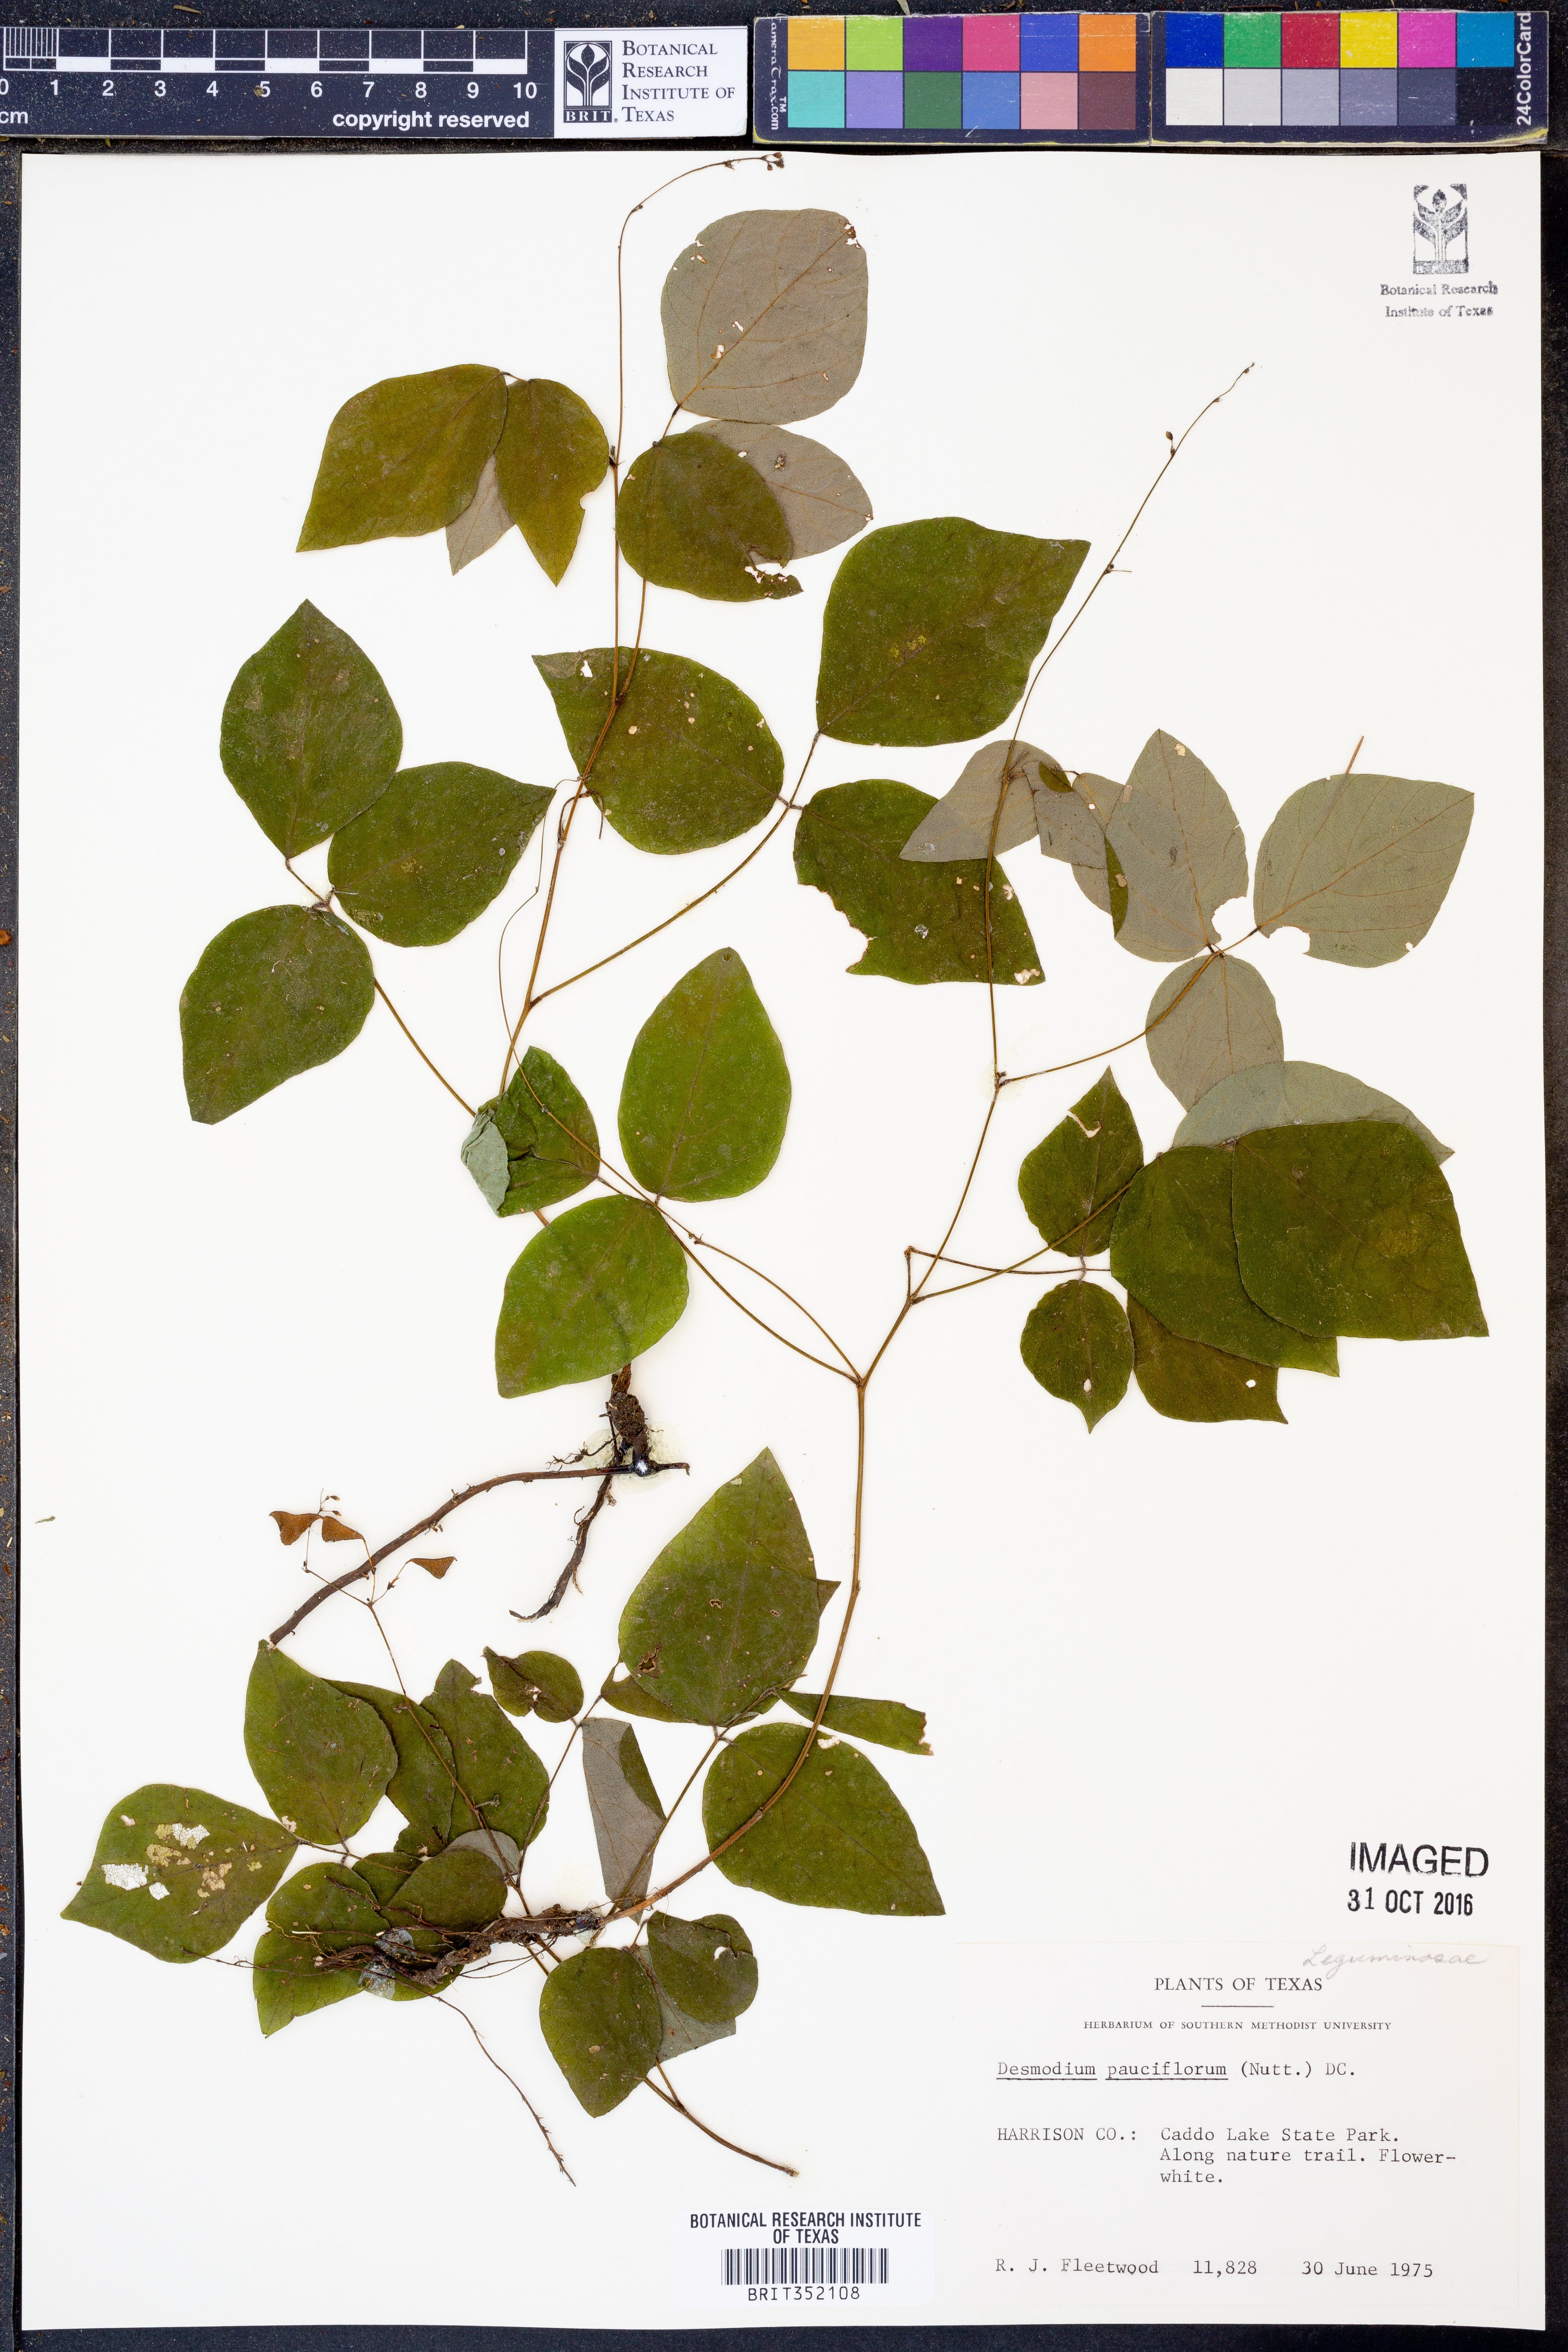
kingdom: Plantae
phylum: Tracheophyta
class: Magnoliopsida
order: Fabales
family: Fabaceae
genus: Hylodesmum
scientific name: Hylodesmum pauciflorum
